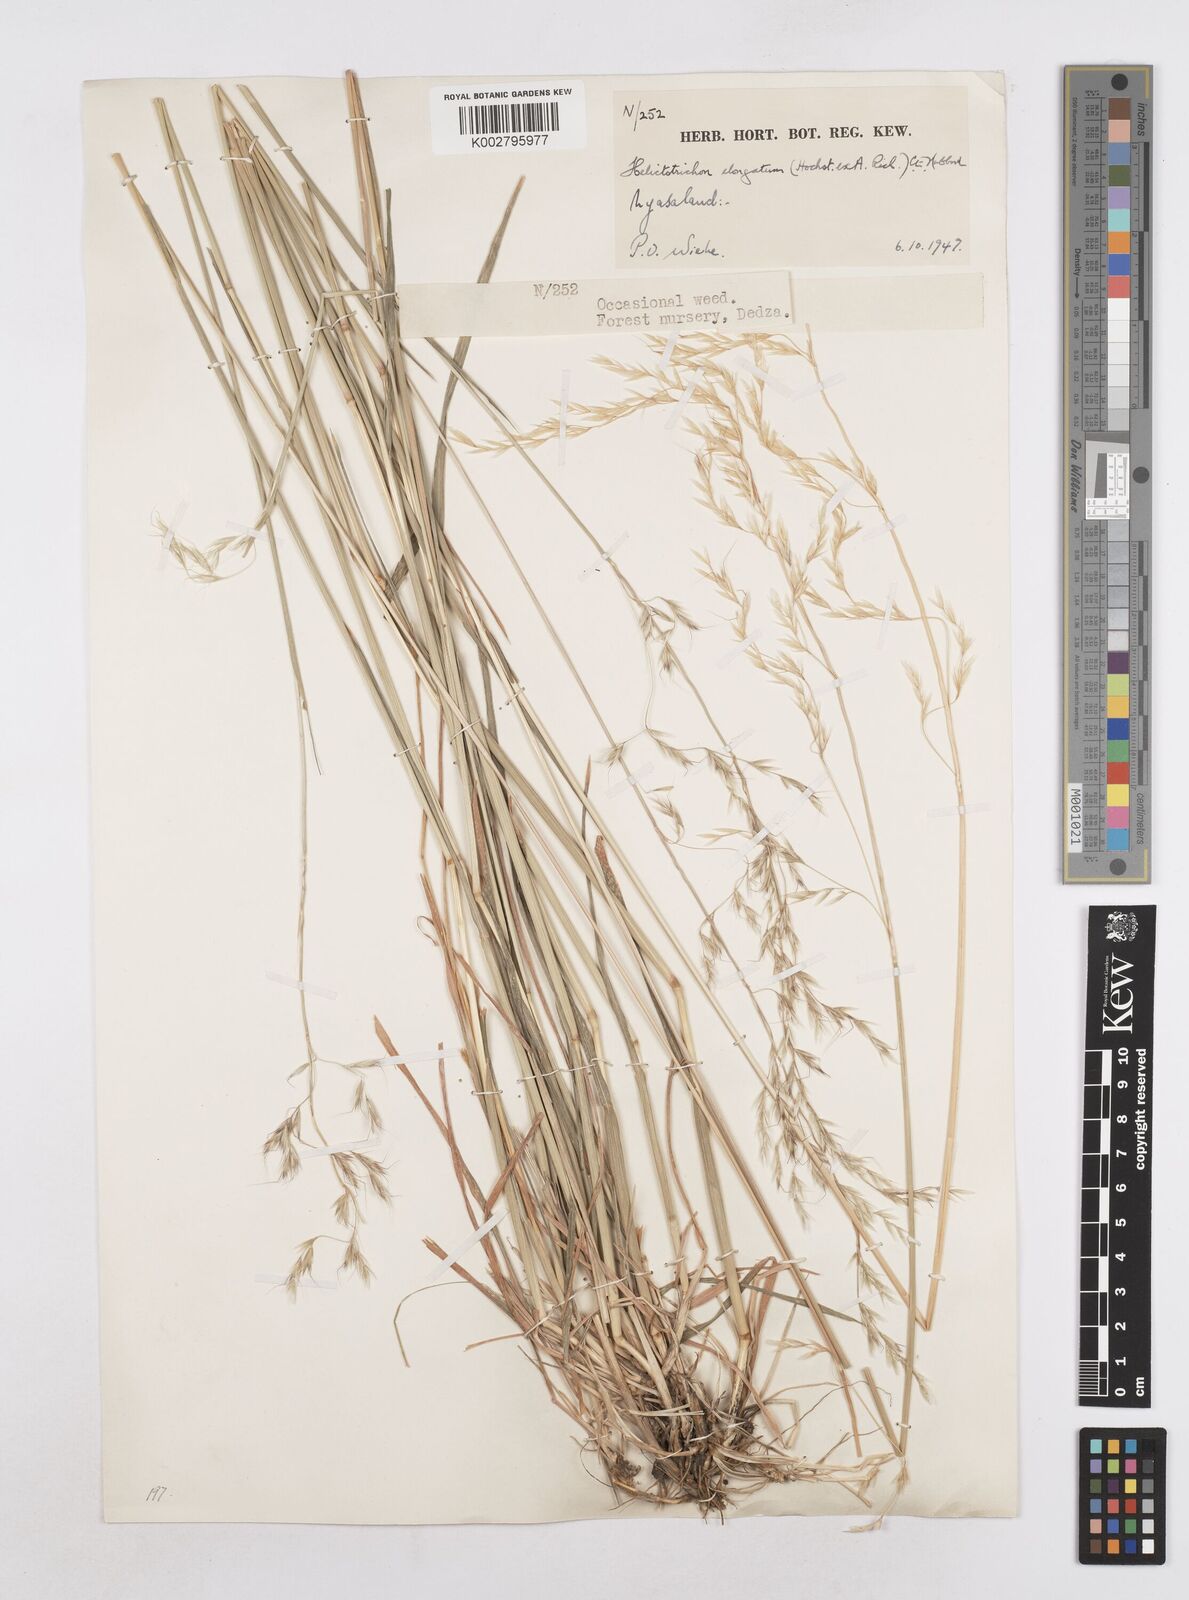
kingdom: Plantae
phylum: Tracheophyta
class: Liliopsida
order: Poales
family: Poaceae
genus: Trisetopsis
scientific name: Trisetopsis elongata
